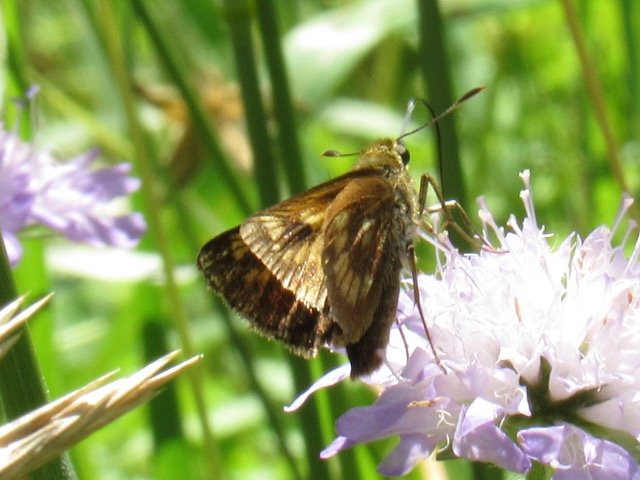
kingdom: Animalia
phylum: Arthropoda
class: Insecta
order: Lepidoptera
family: Hesperiidae
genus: Polites
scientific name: Polites
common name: Long Dash Skipper
